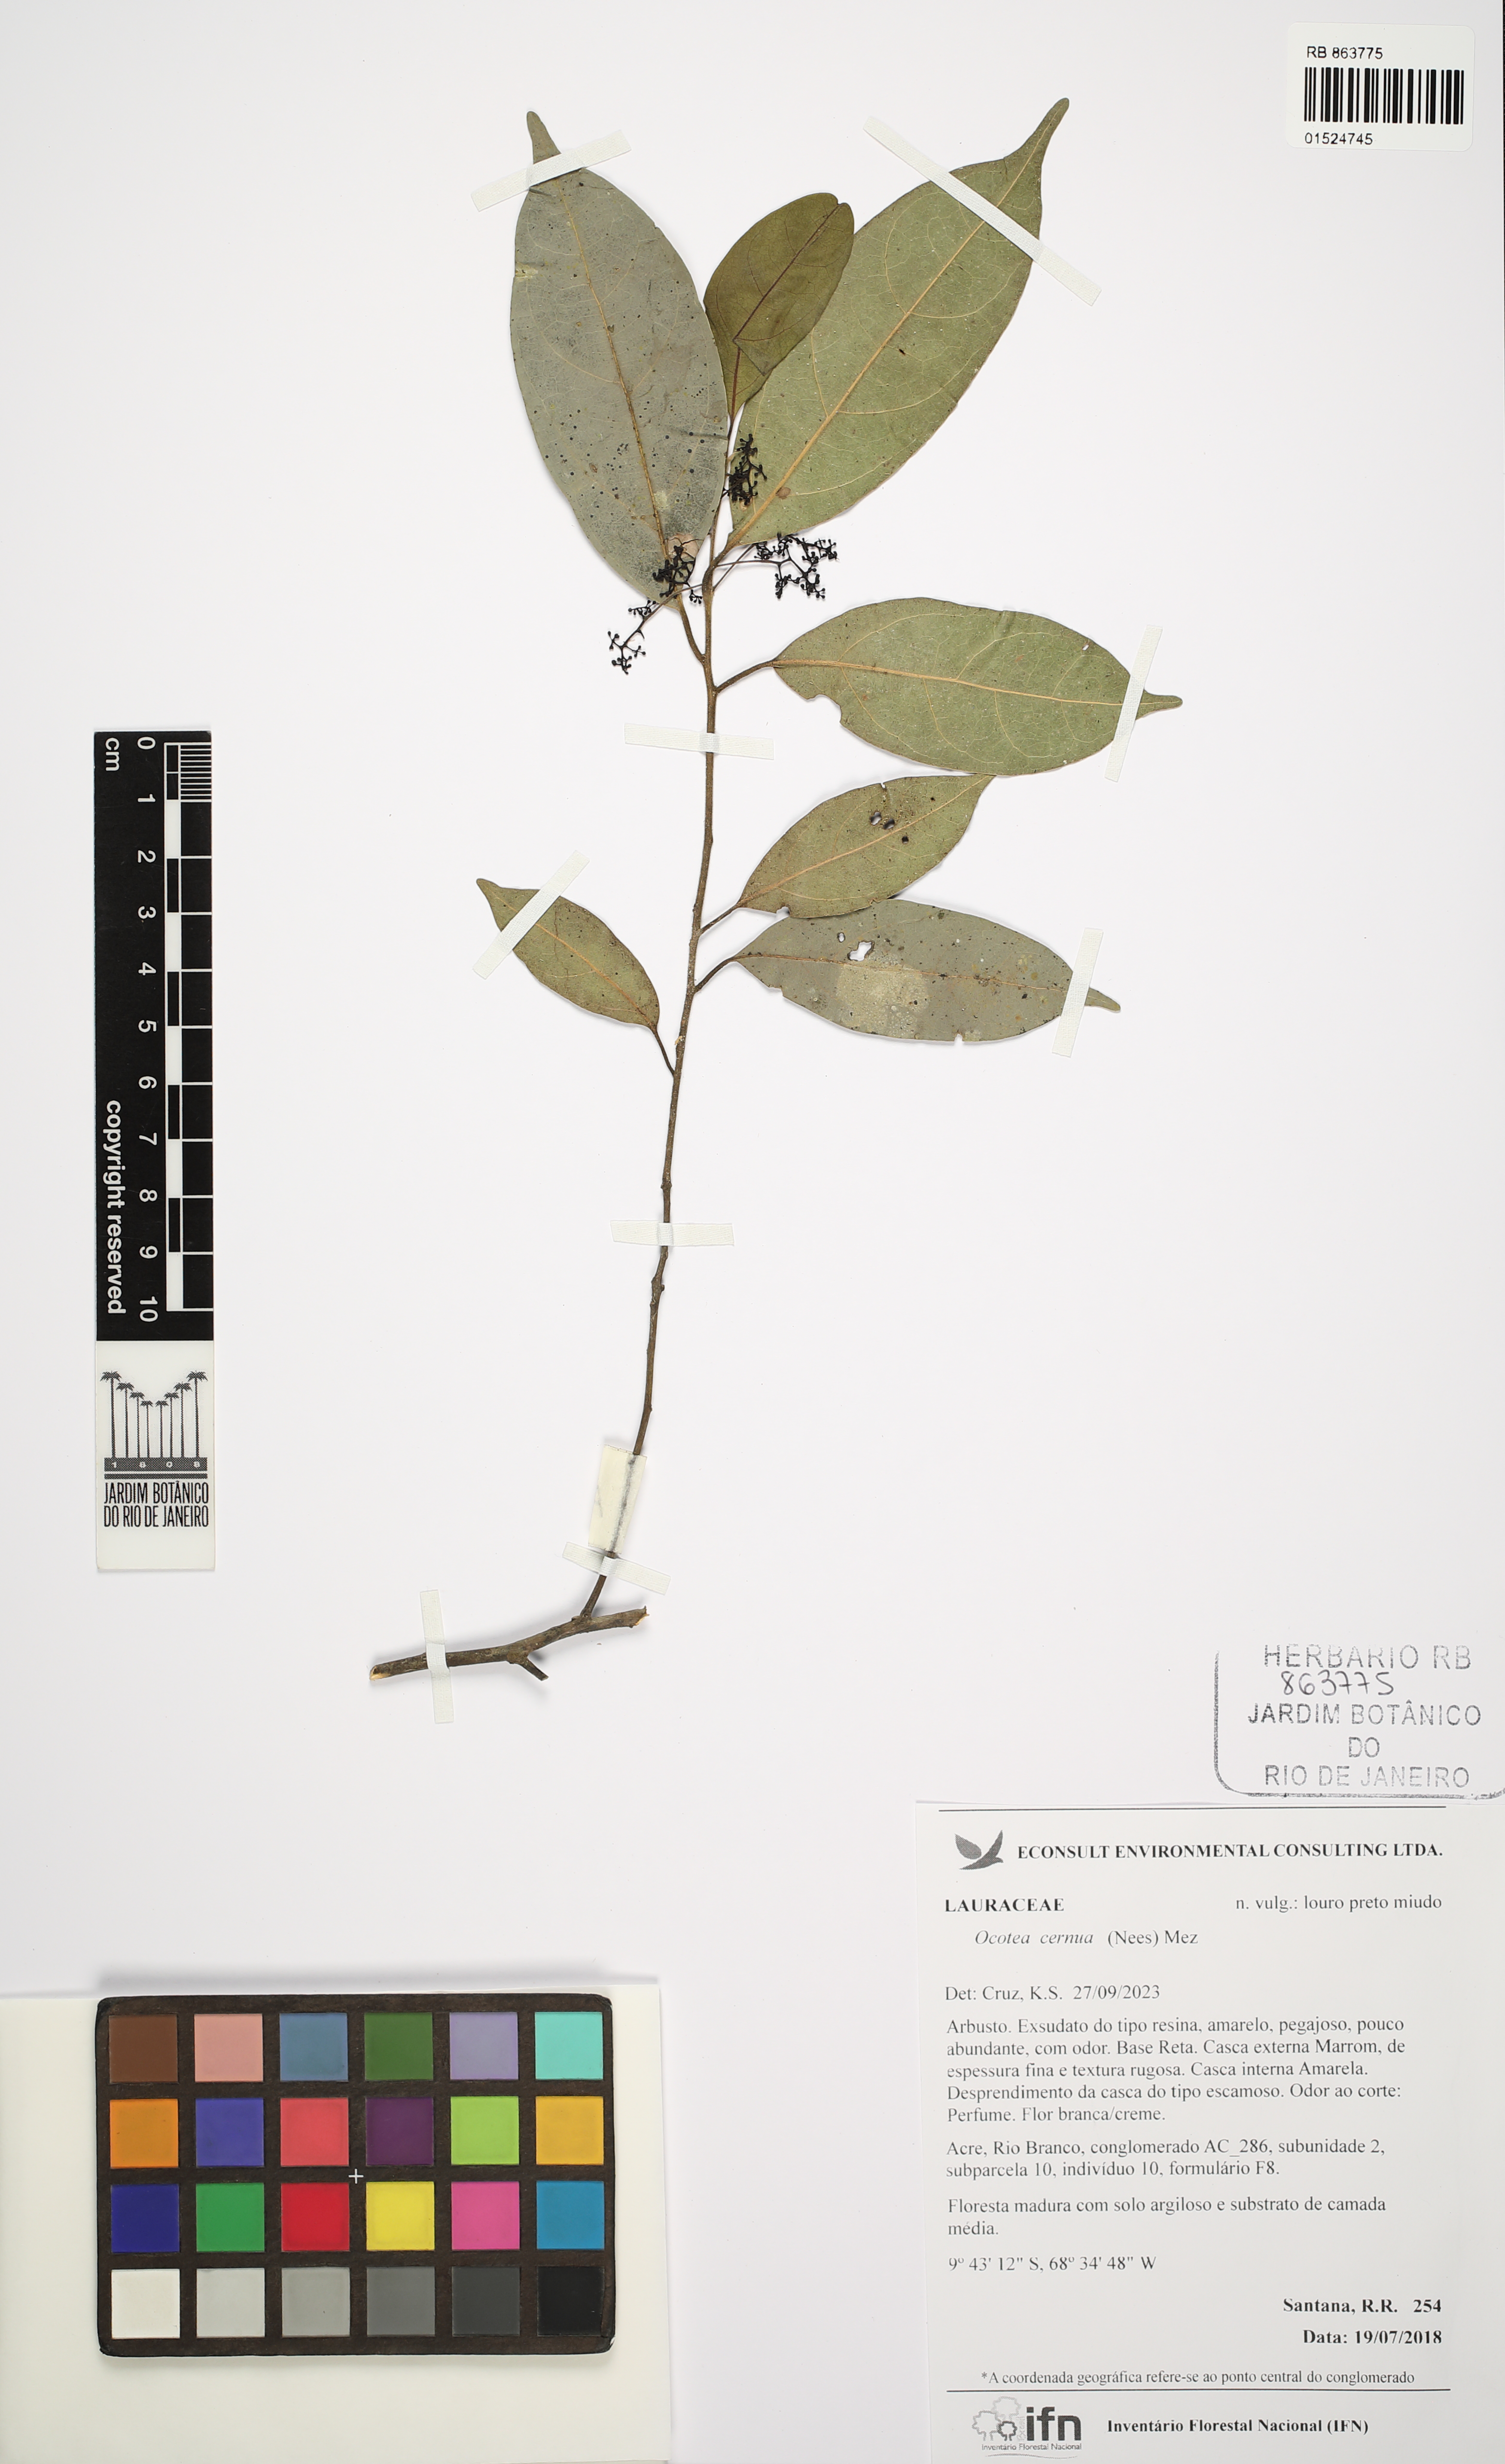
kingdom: Plantae
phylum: Tracheophyta
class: Magnoliopsida
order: Laurales
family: Lauraceae
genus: Ocotea
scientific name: Ocotea leptobotra
